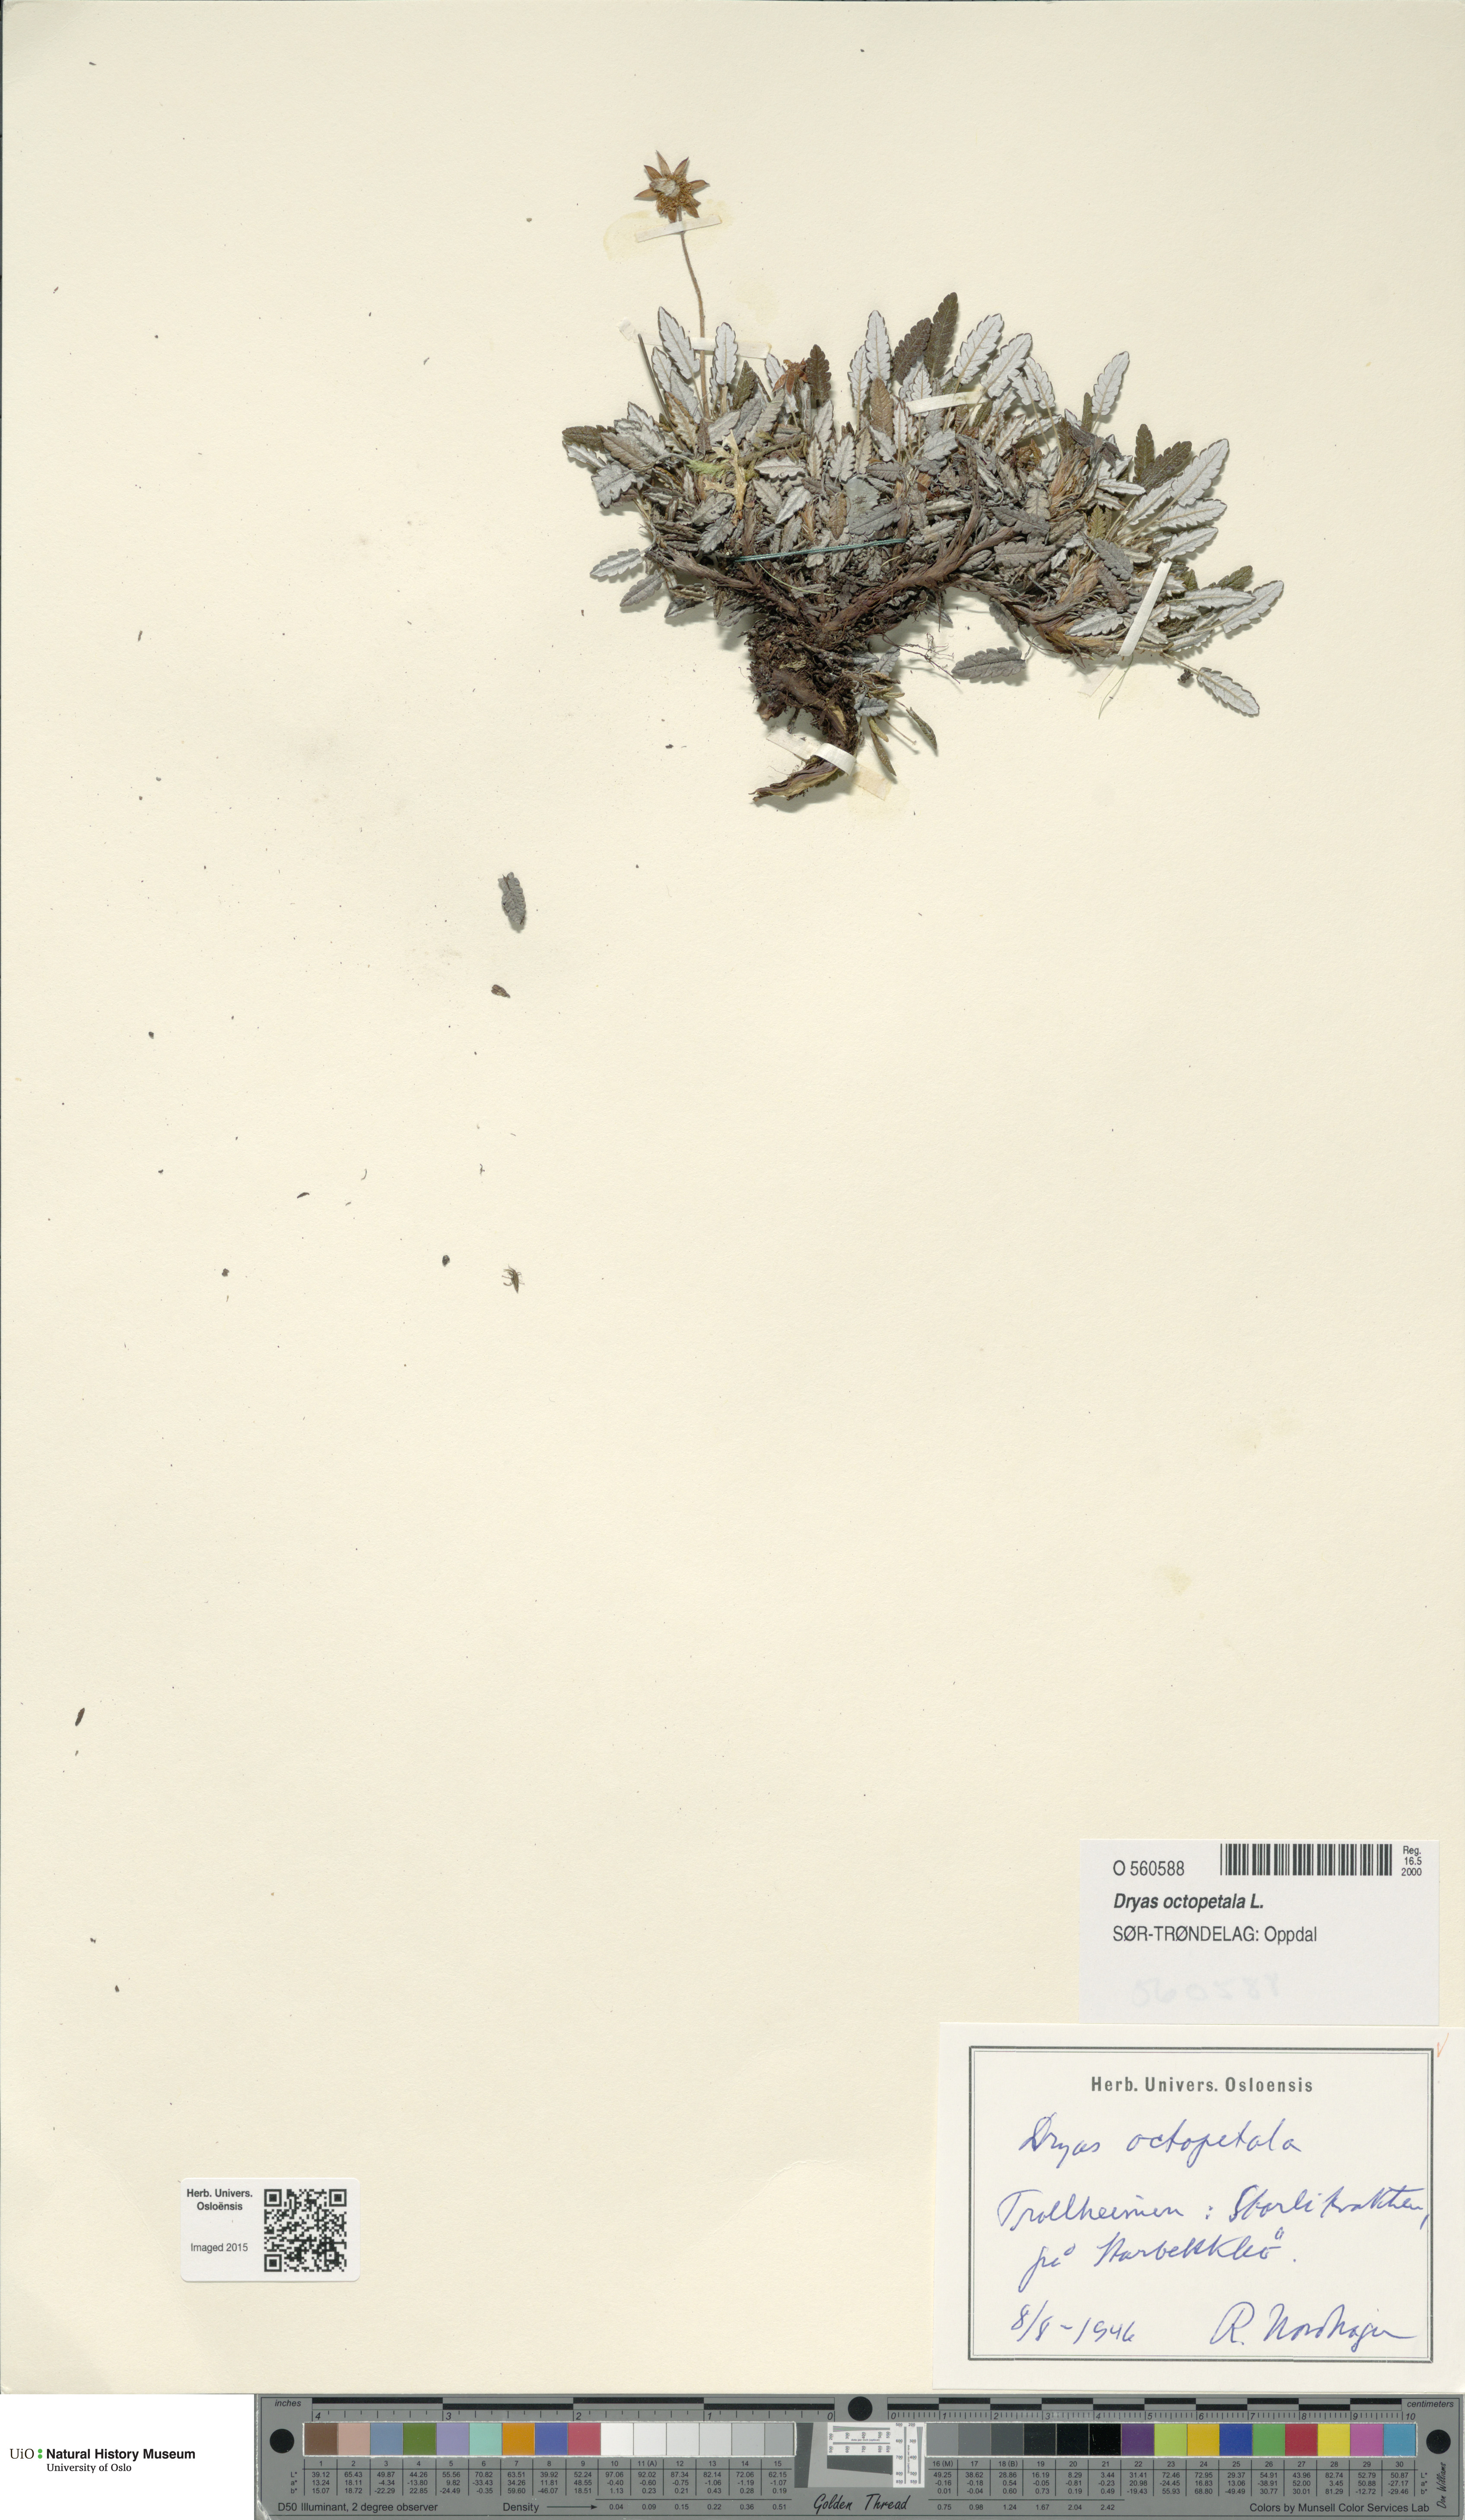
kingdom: Plantae
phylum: Tracheophyta
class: Magnoliopsida
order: Rosales
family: Rosaceae
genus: Dryas
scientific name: Dryas octopetala
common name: Eight-petal mountain-avens
